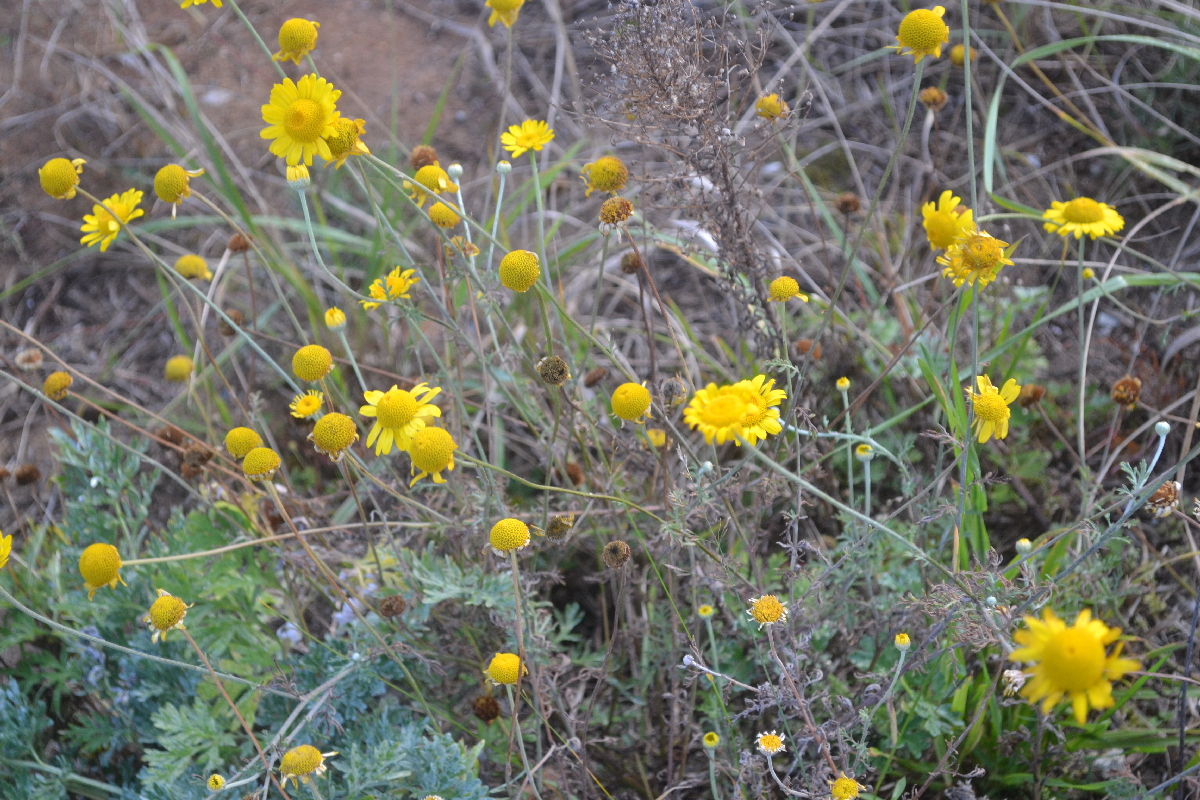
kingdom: Plantae
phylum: Tracheophyta
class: Magnoliopsida
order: Asterales
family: Asteraceae
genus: Cota
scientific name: Cota tinctoria
